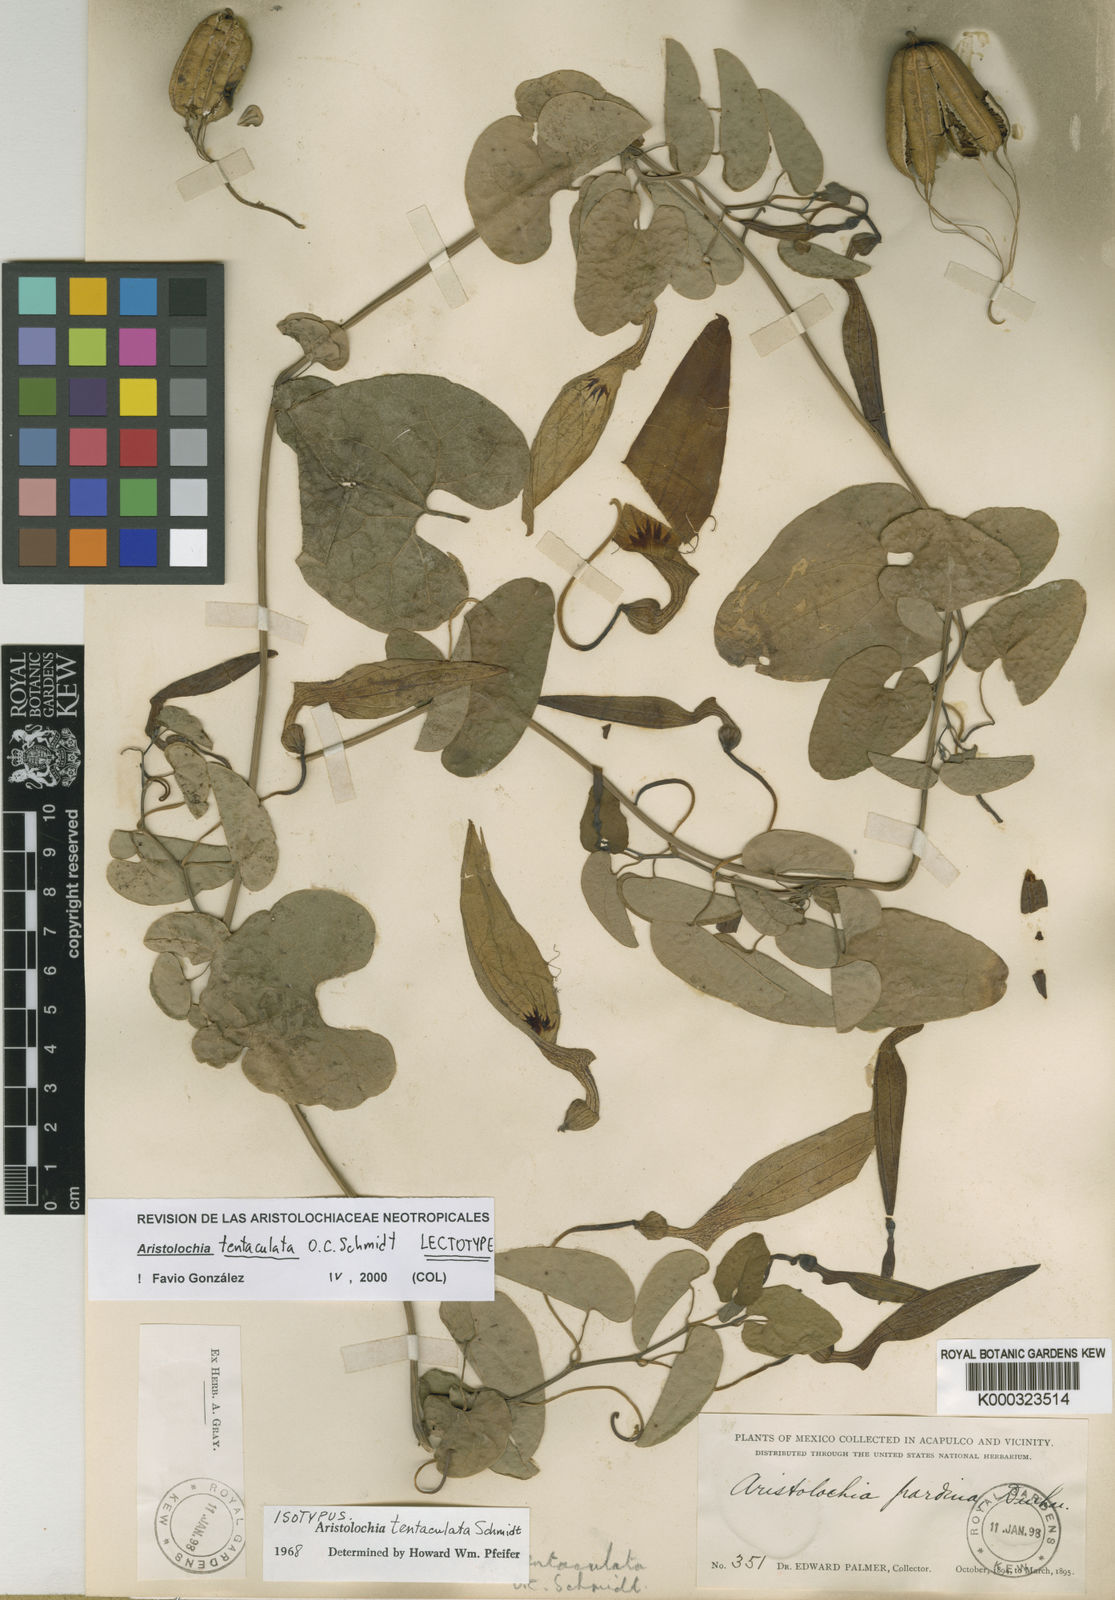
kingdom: Plantae
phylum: Tracheophyta
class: Magnoliopsida
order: Piperales
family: Aristolochiaceae
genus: Aristolochia
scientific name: Aristolochia tentaculata
